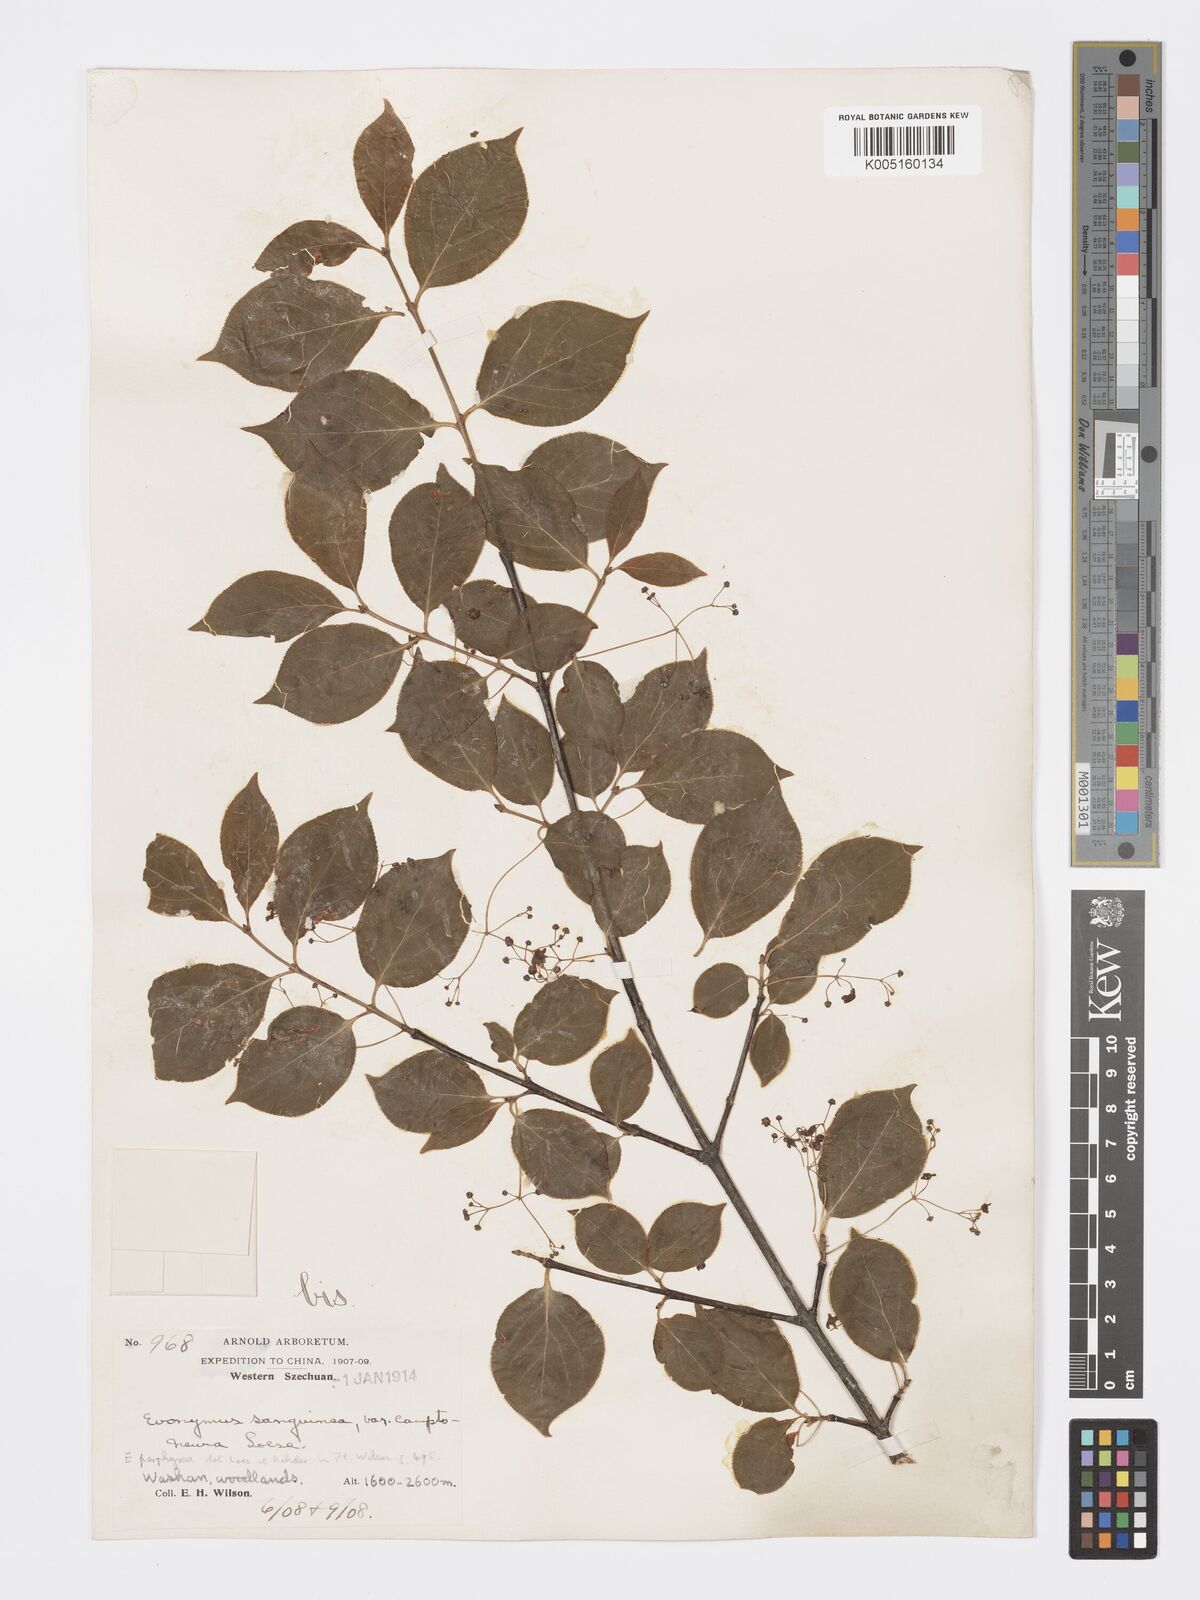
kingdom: Plantae
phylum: Tracheophyta
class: Magnoliopsida
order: Celastrales
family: Celastraceae
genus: Euonymus
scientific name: Euonymus frigidus
